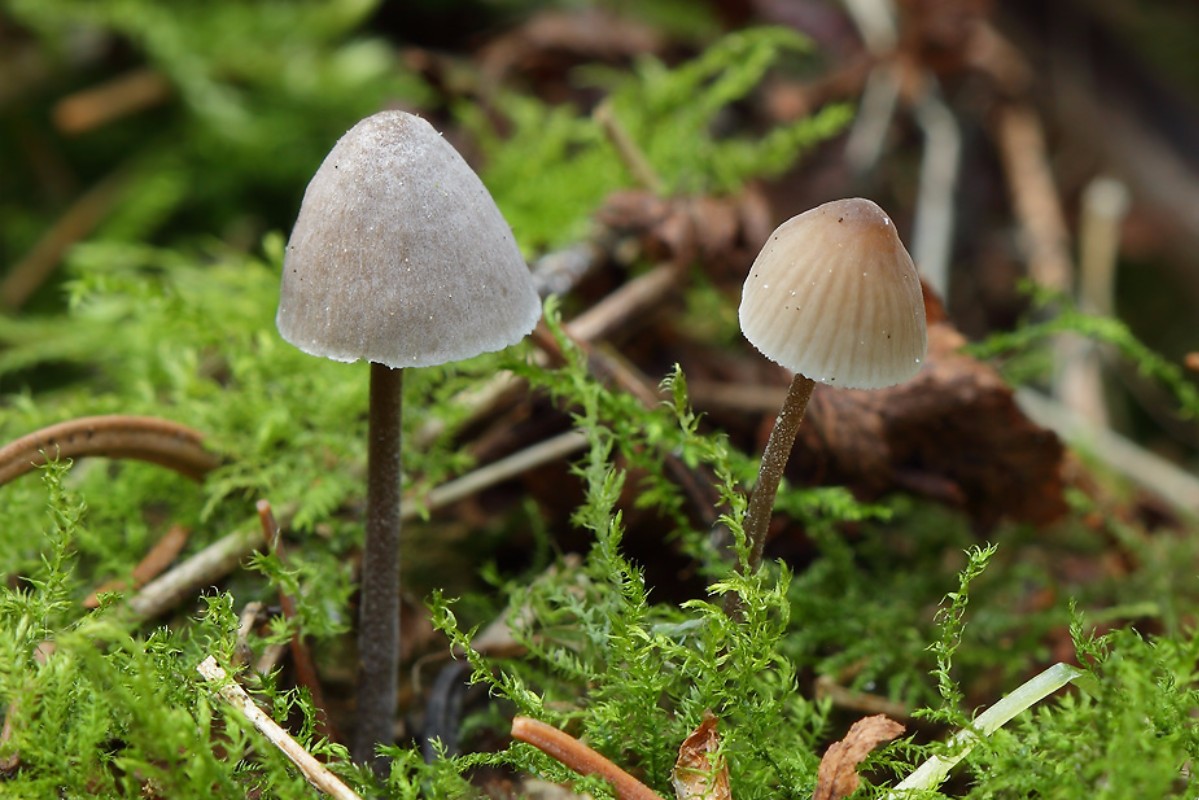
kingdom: Fungi
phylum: Basidiomycota
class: Agaricomycetes
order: Agaricales
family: Mycenaceae
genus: Mycena
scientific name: Mycena leptocephala
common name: klor-huesvamp
